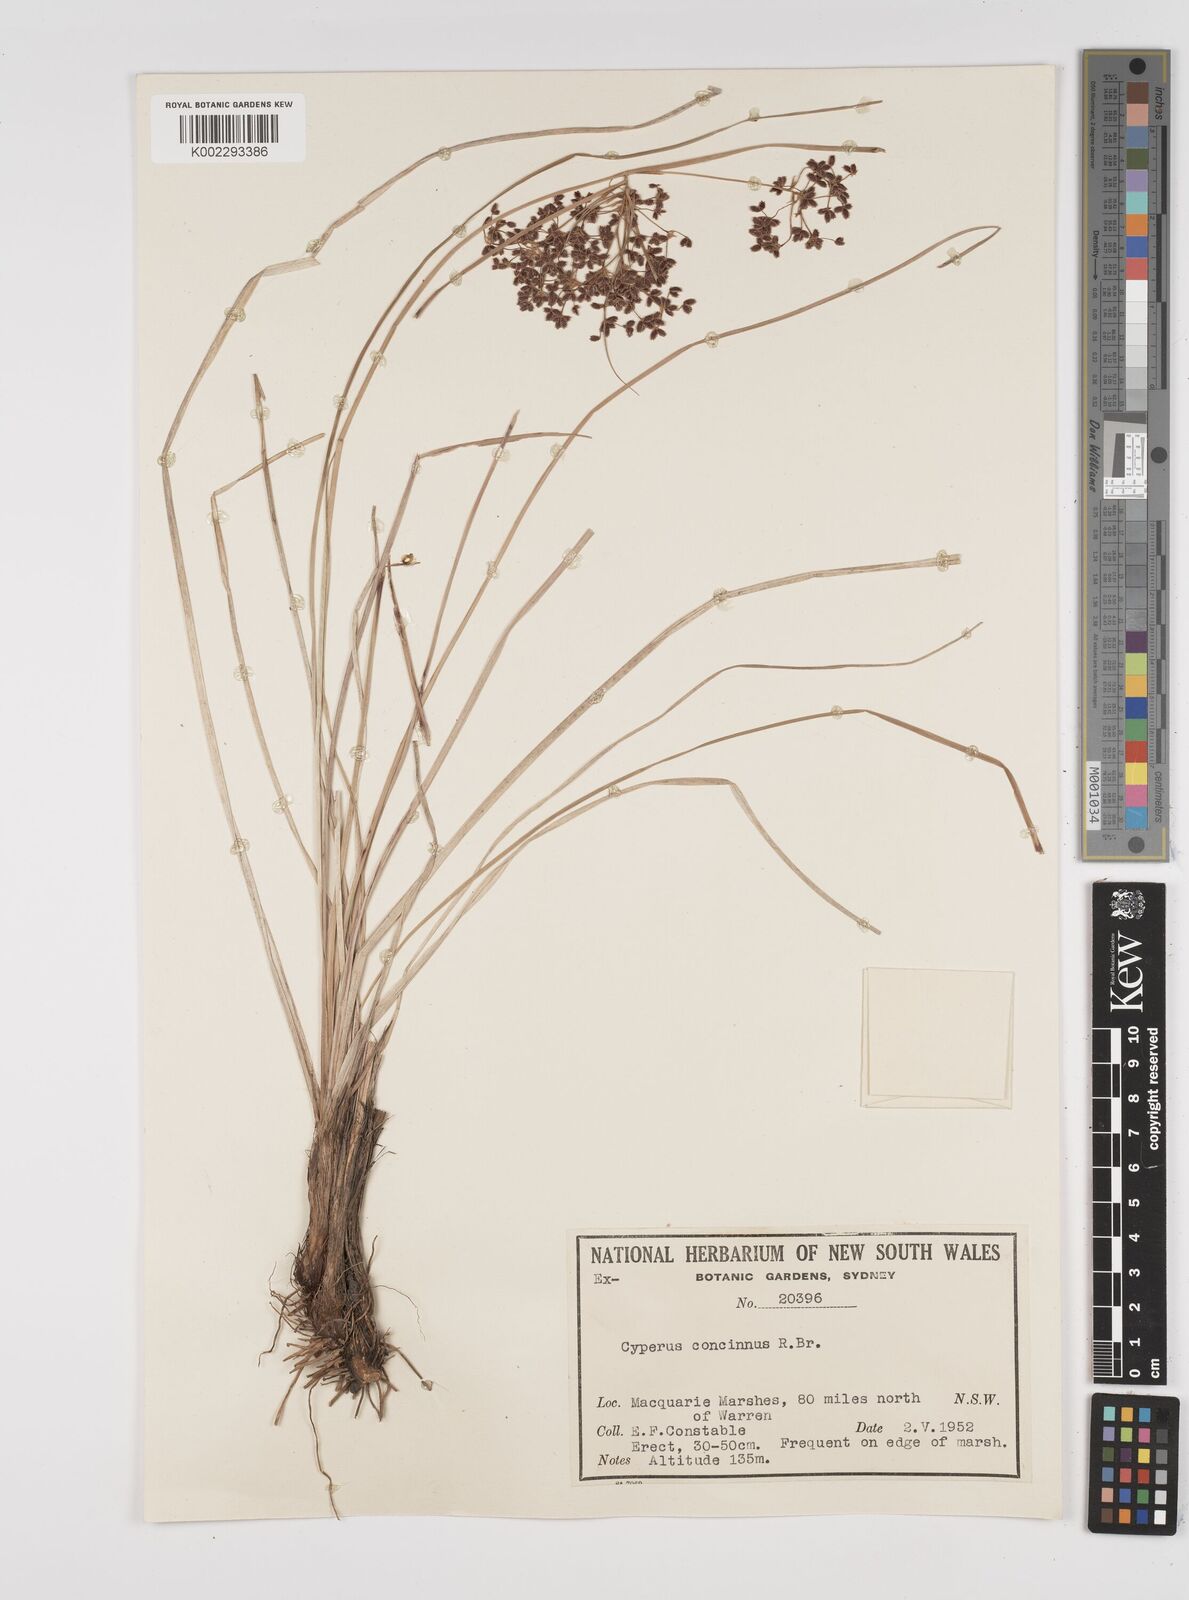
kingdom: Plantae
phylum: Tracheophyta
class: Liliopsida
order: Poales
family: Cyperaceae
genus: Cyperus
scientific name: Cyperus concinnus
